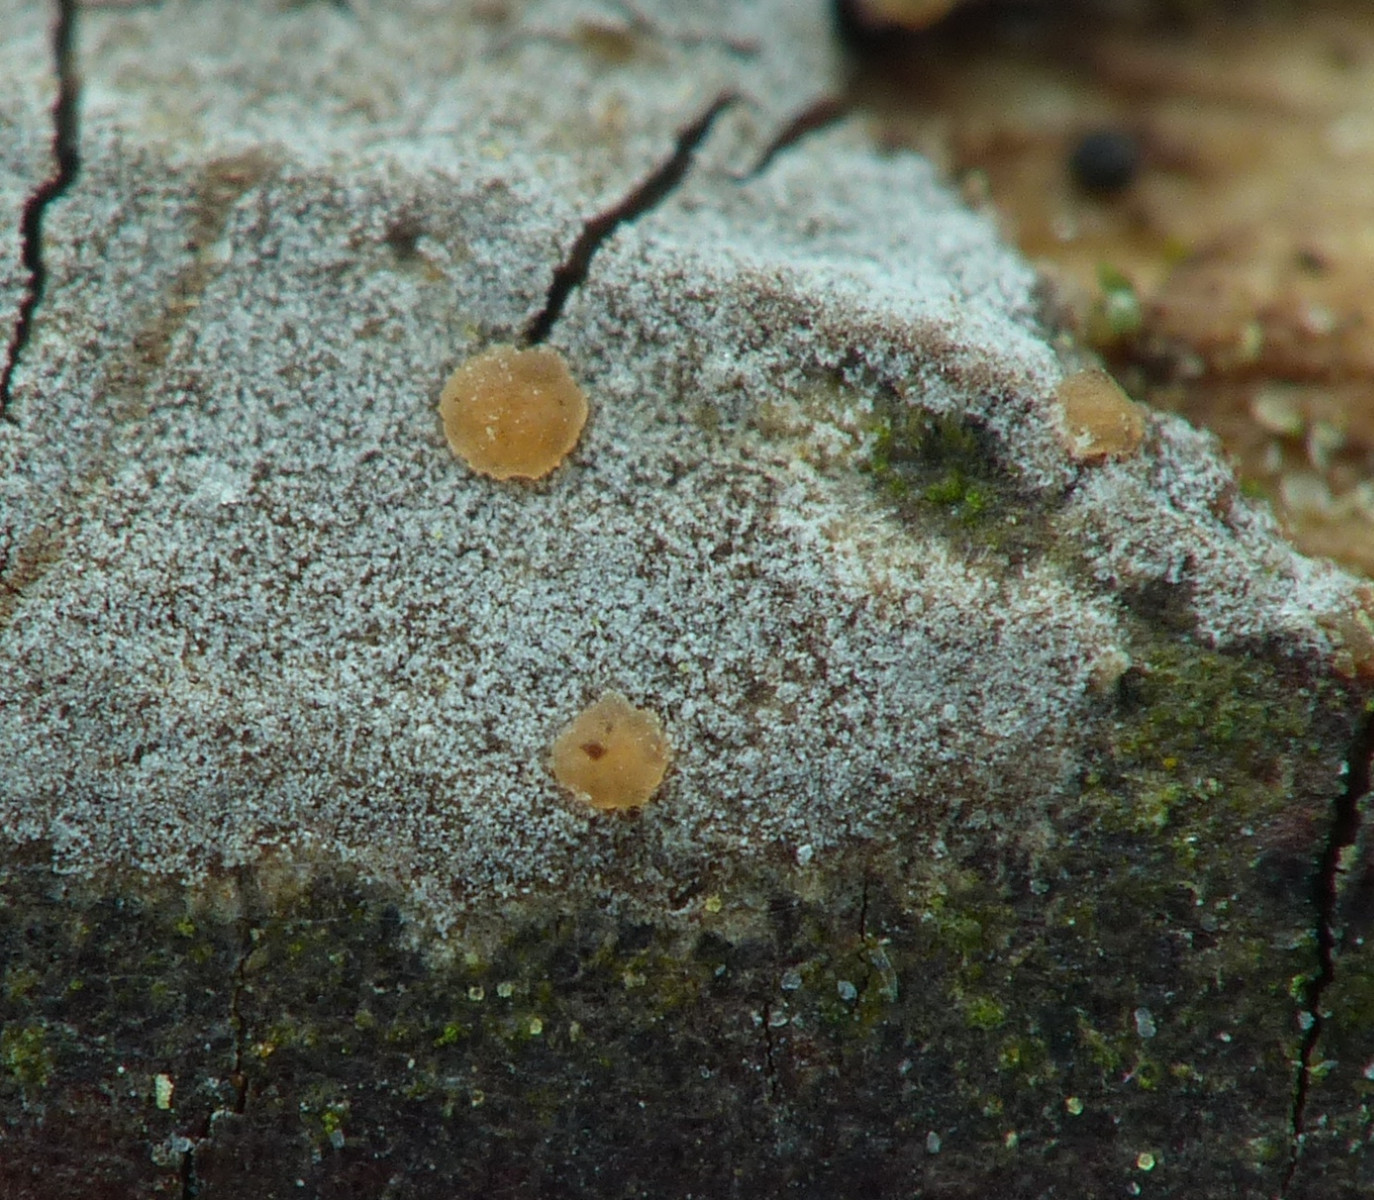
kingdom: Fungi
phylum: Basidiomycota
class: Tremellomycetes
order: Tremellales
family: Tremellaceae
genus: Tremella
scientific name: Tremella versicolor
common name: voksskind-bævresvamp
